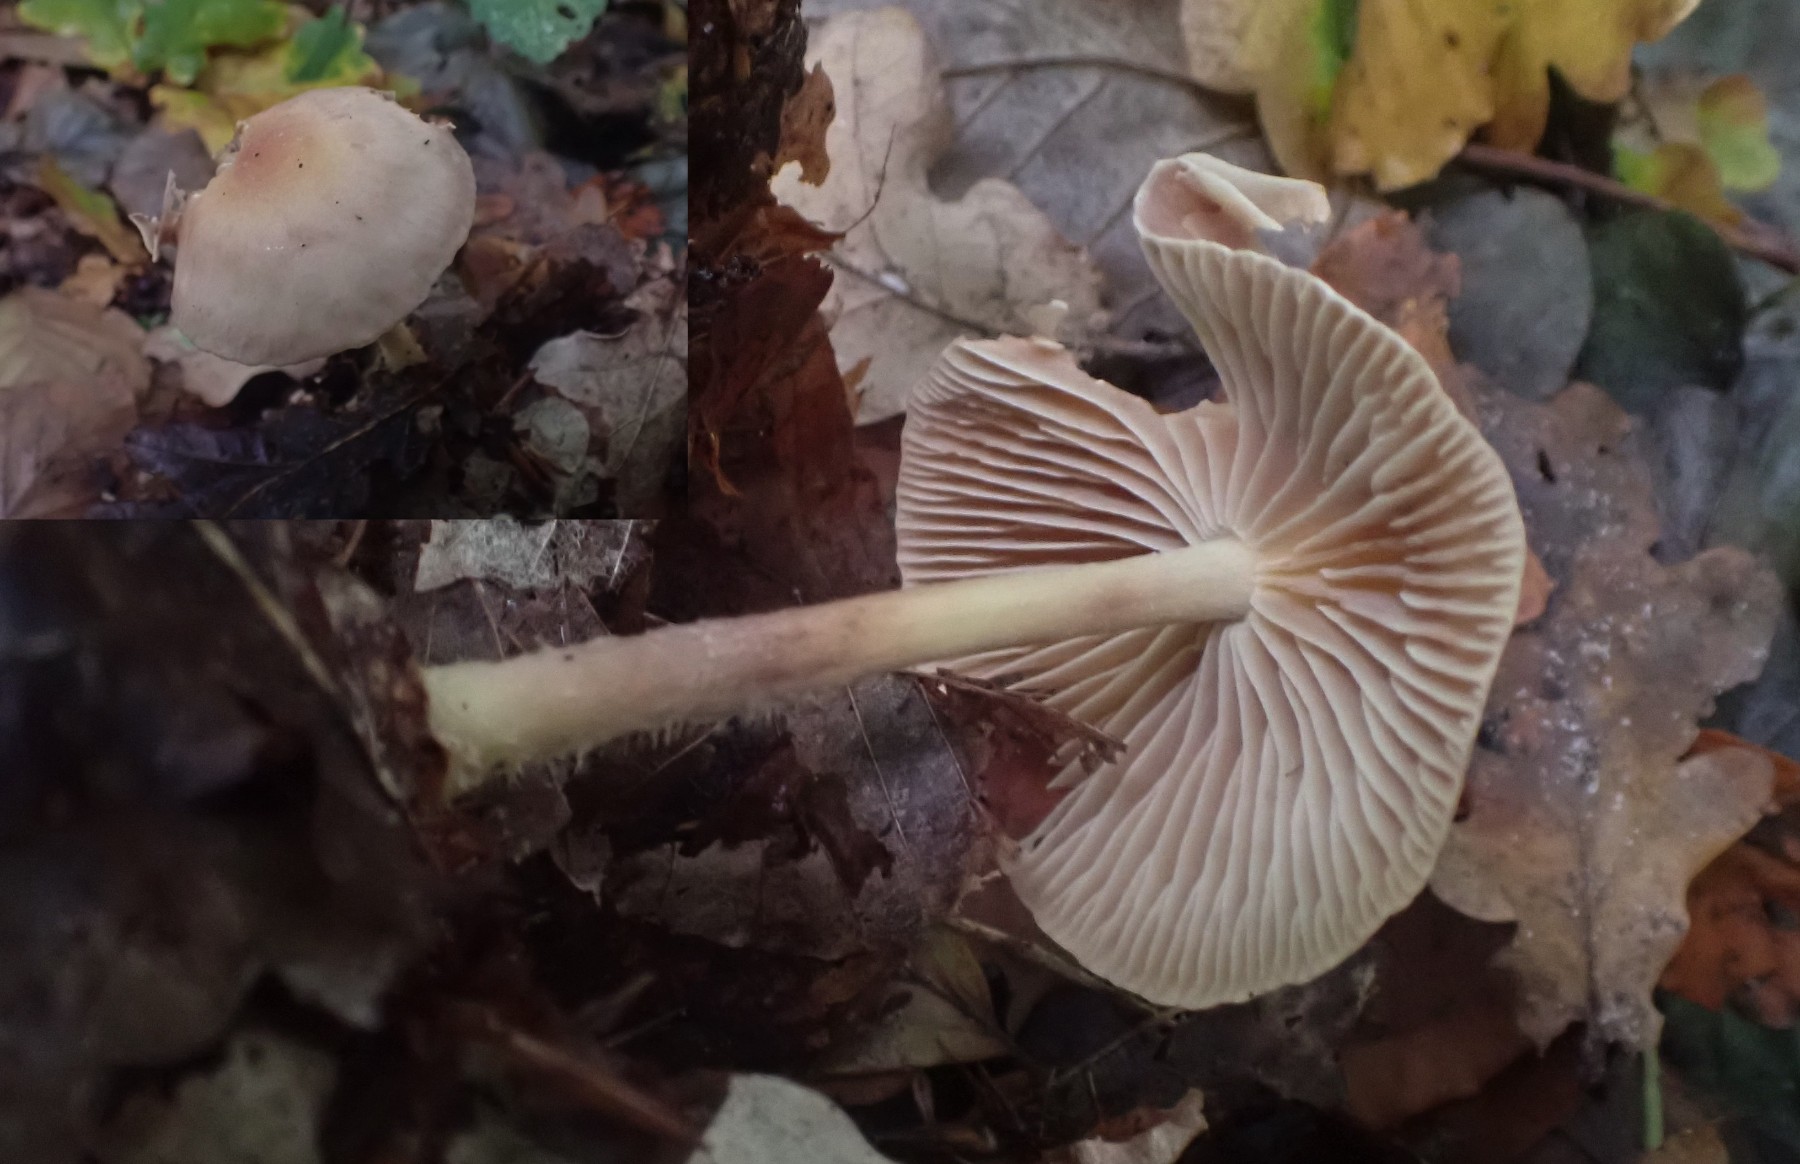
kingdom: Fungi
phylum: Basidiomycota
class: Agaricomycetes
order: Agaricales
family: Omphalotaceae
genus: Collybiopsis
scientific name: Collybiopsis peronata
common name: bestøvlet fladhat
